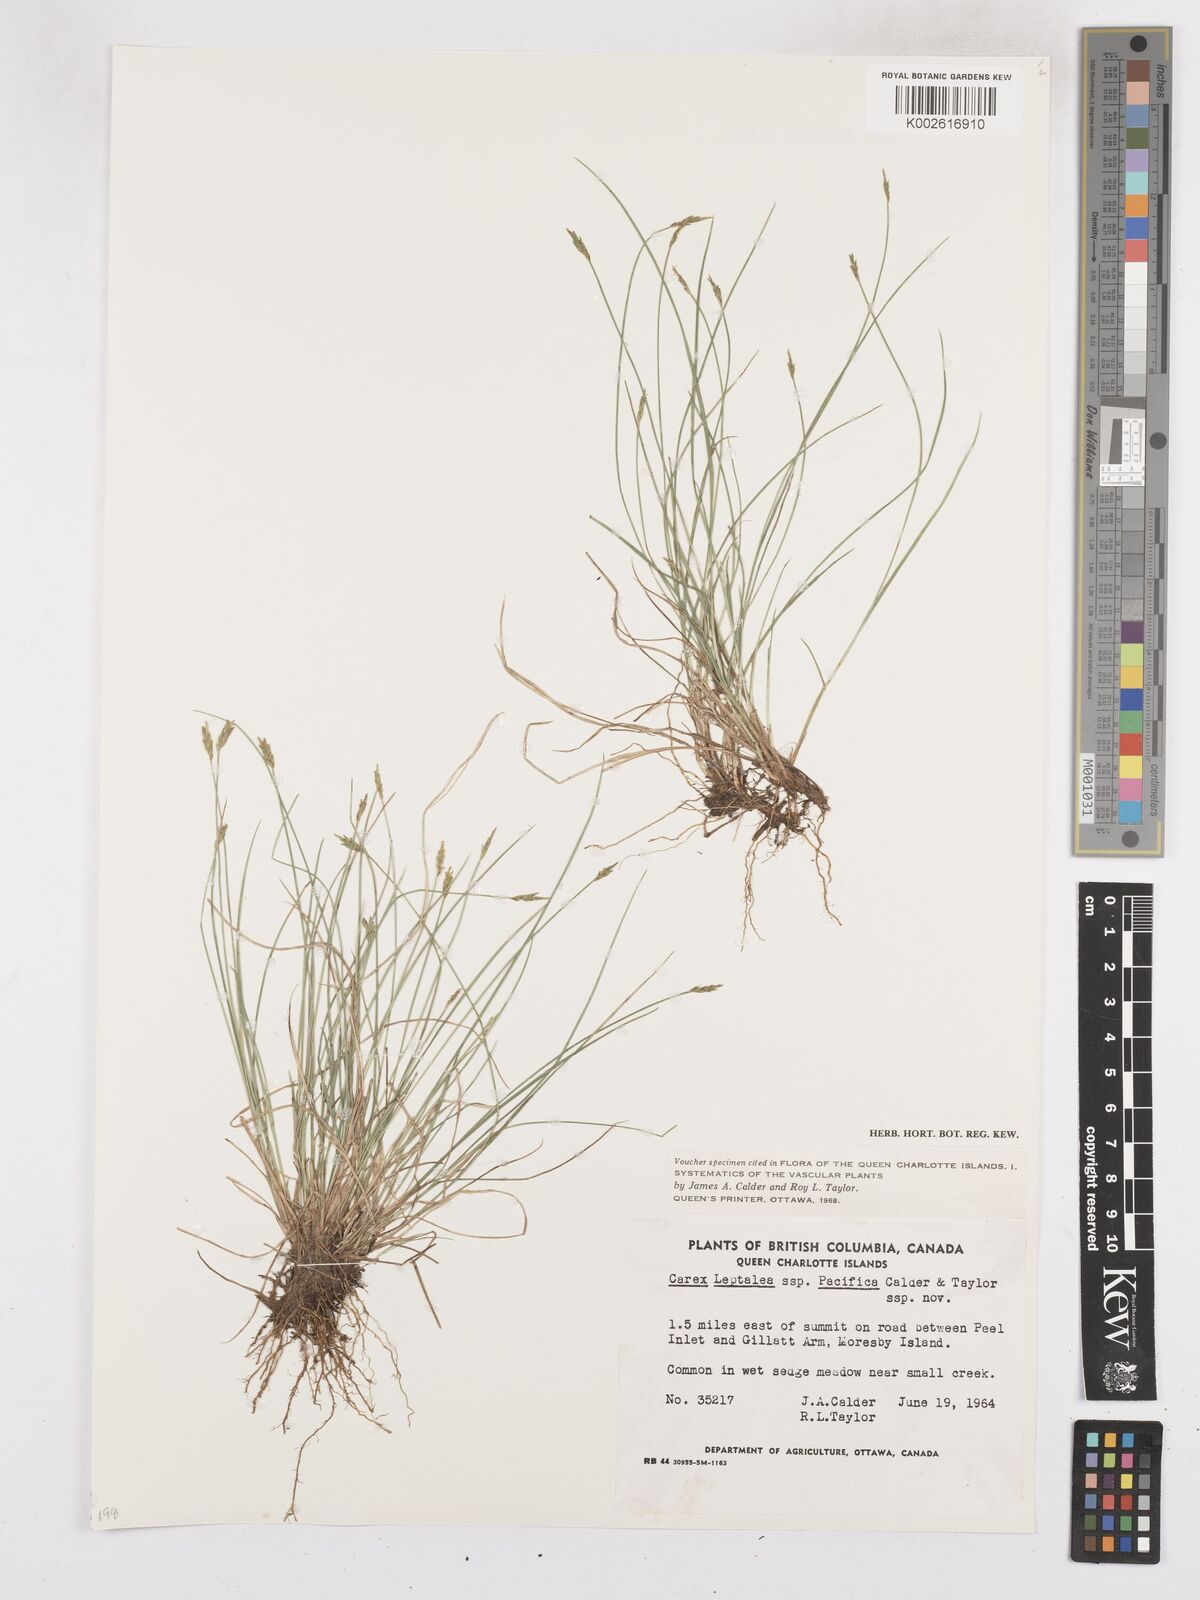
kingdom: Plantae
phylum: Tracheophyta
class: Liliopsida
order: Poales
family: Cyperaceae
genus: Carex
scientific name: Carex leptalea
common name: Bristly-stalked sedge
